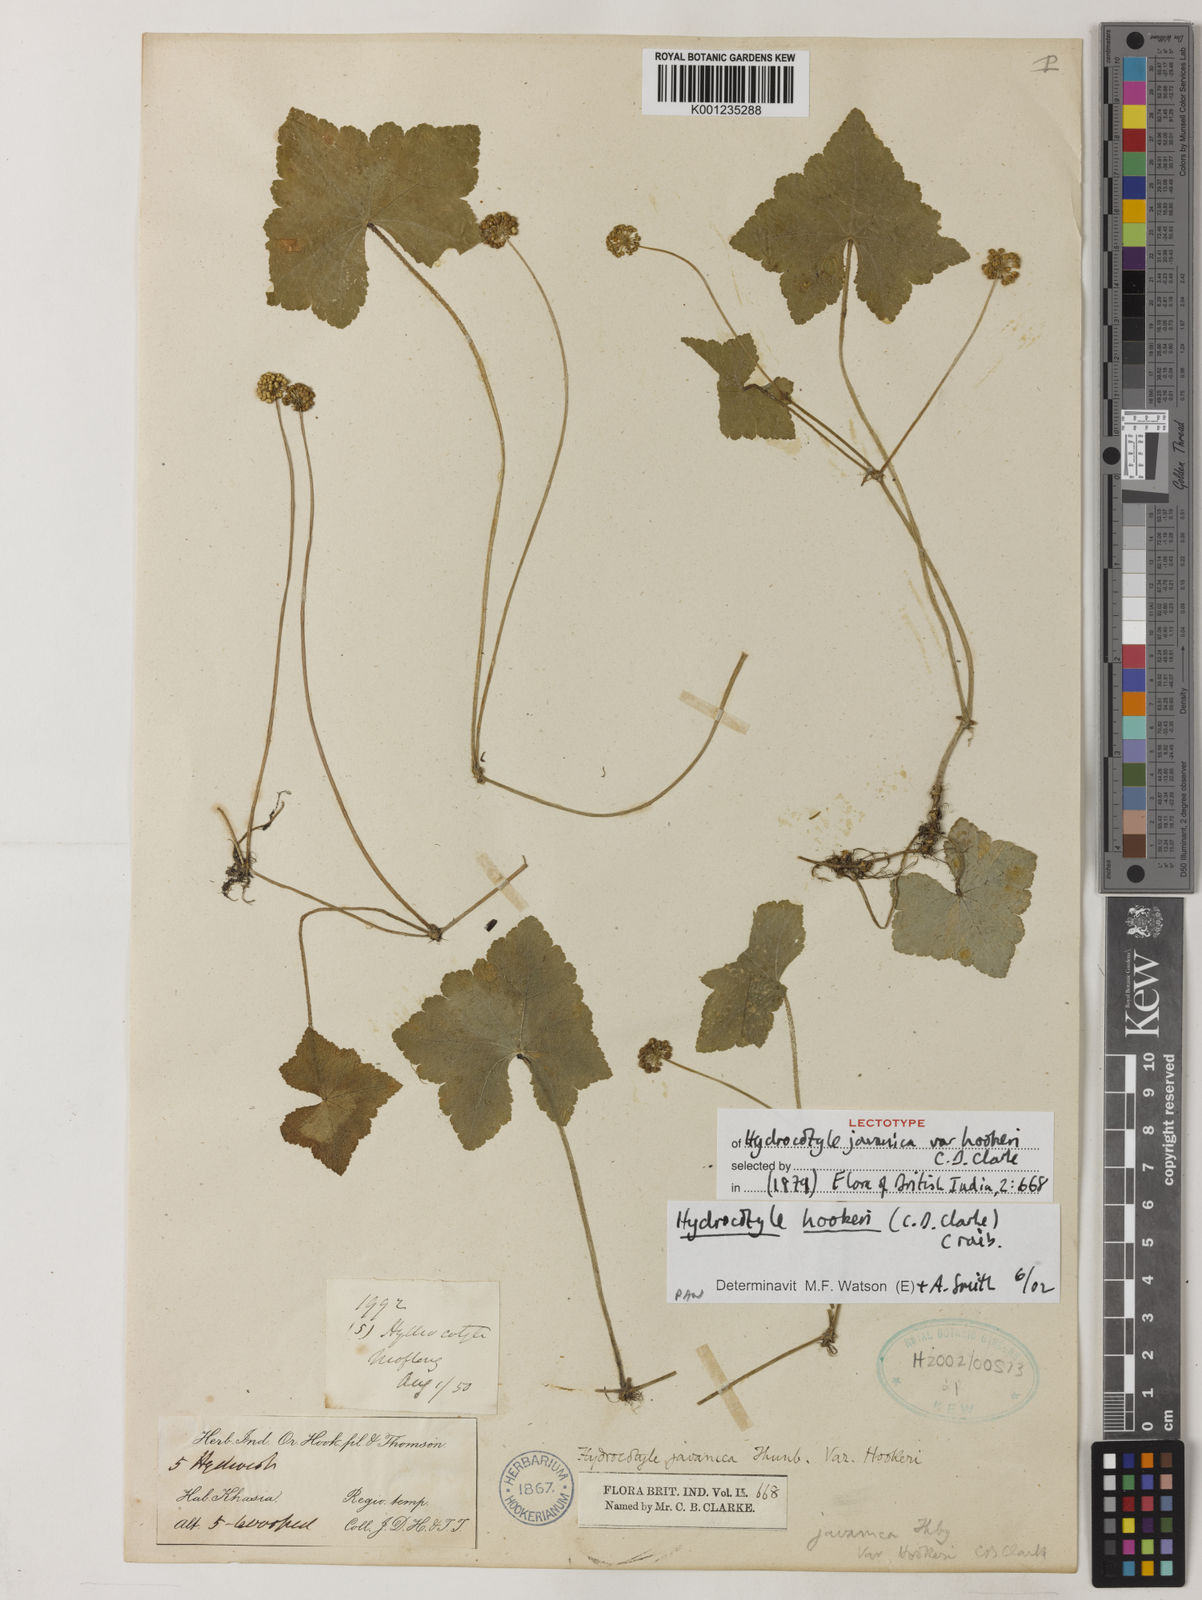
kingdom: Plantae
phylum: Tracheophyta
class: Magnoliopsida
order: Apiales
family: Araliaceae
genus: Hydrocotyle
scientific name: Hydrocotyle hookeri
